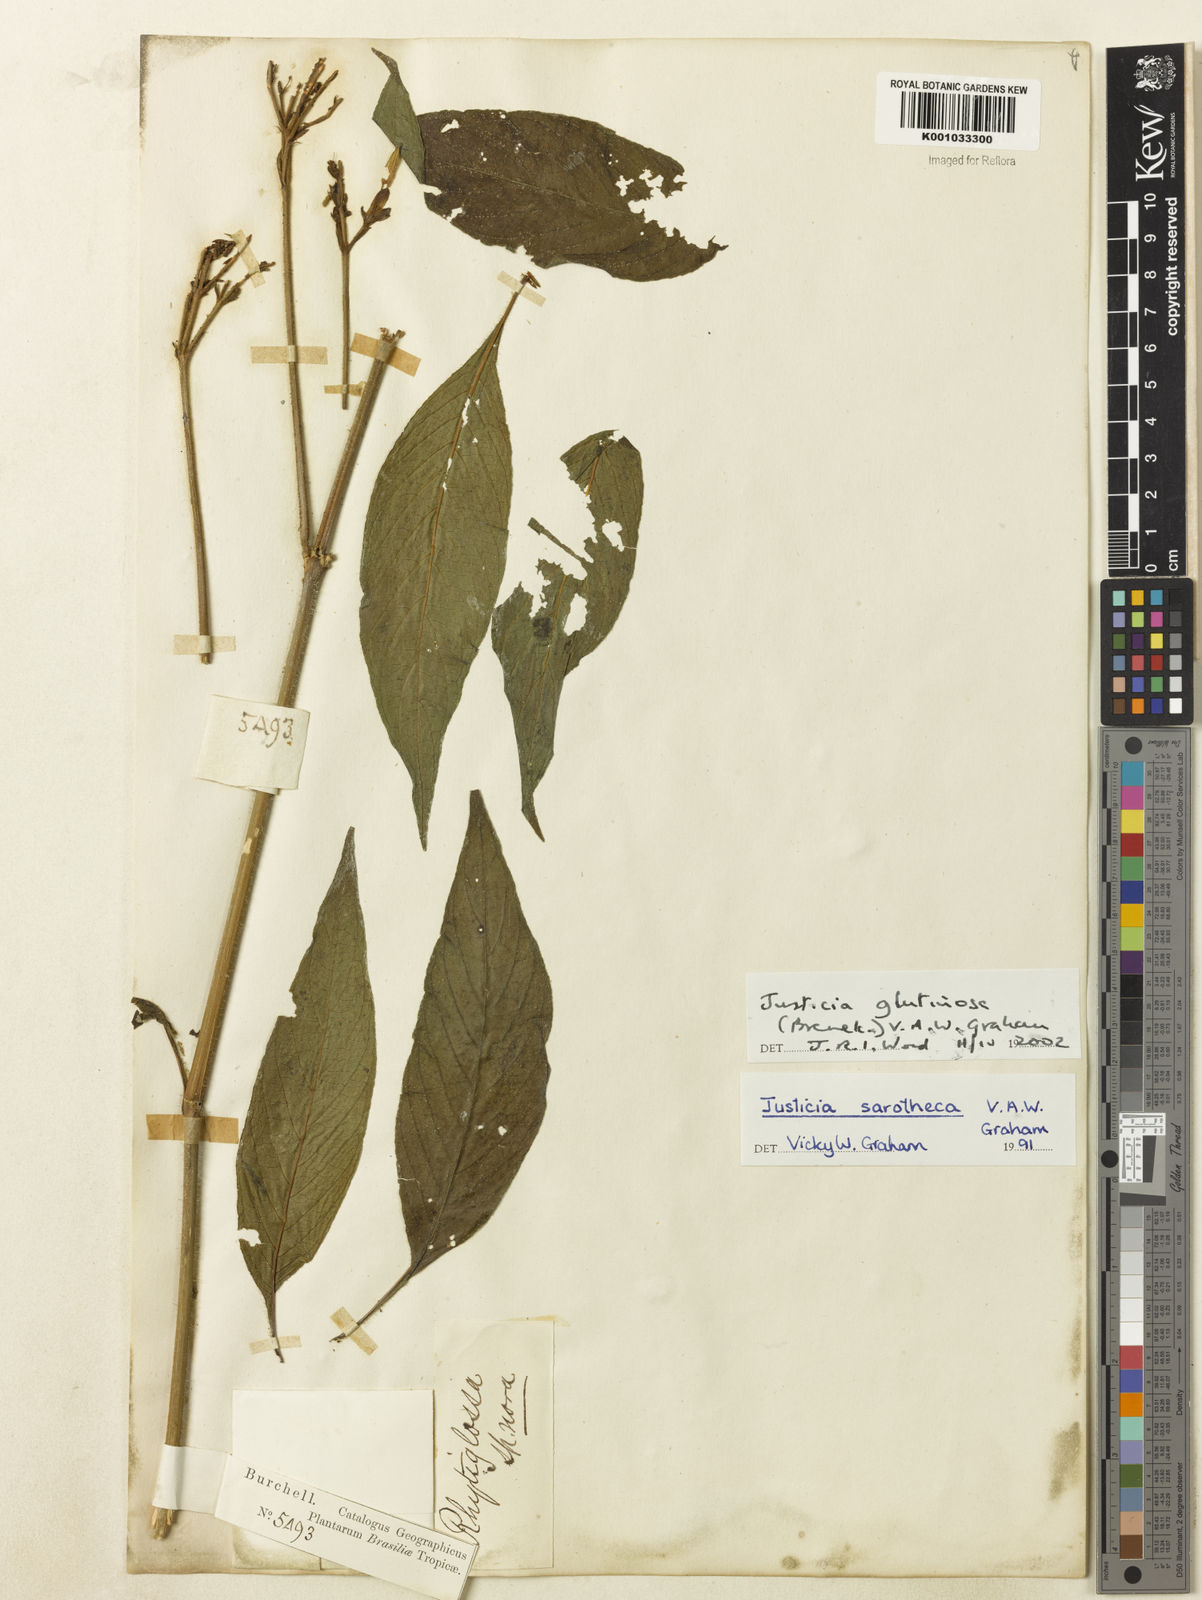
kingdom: Plantae
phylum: Tracheophyta
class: Magnoliopsida
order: Lamiales
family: Acanthaceae
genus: Justicia
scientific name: Justicia glutinosa
